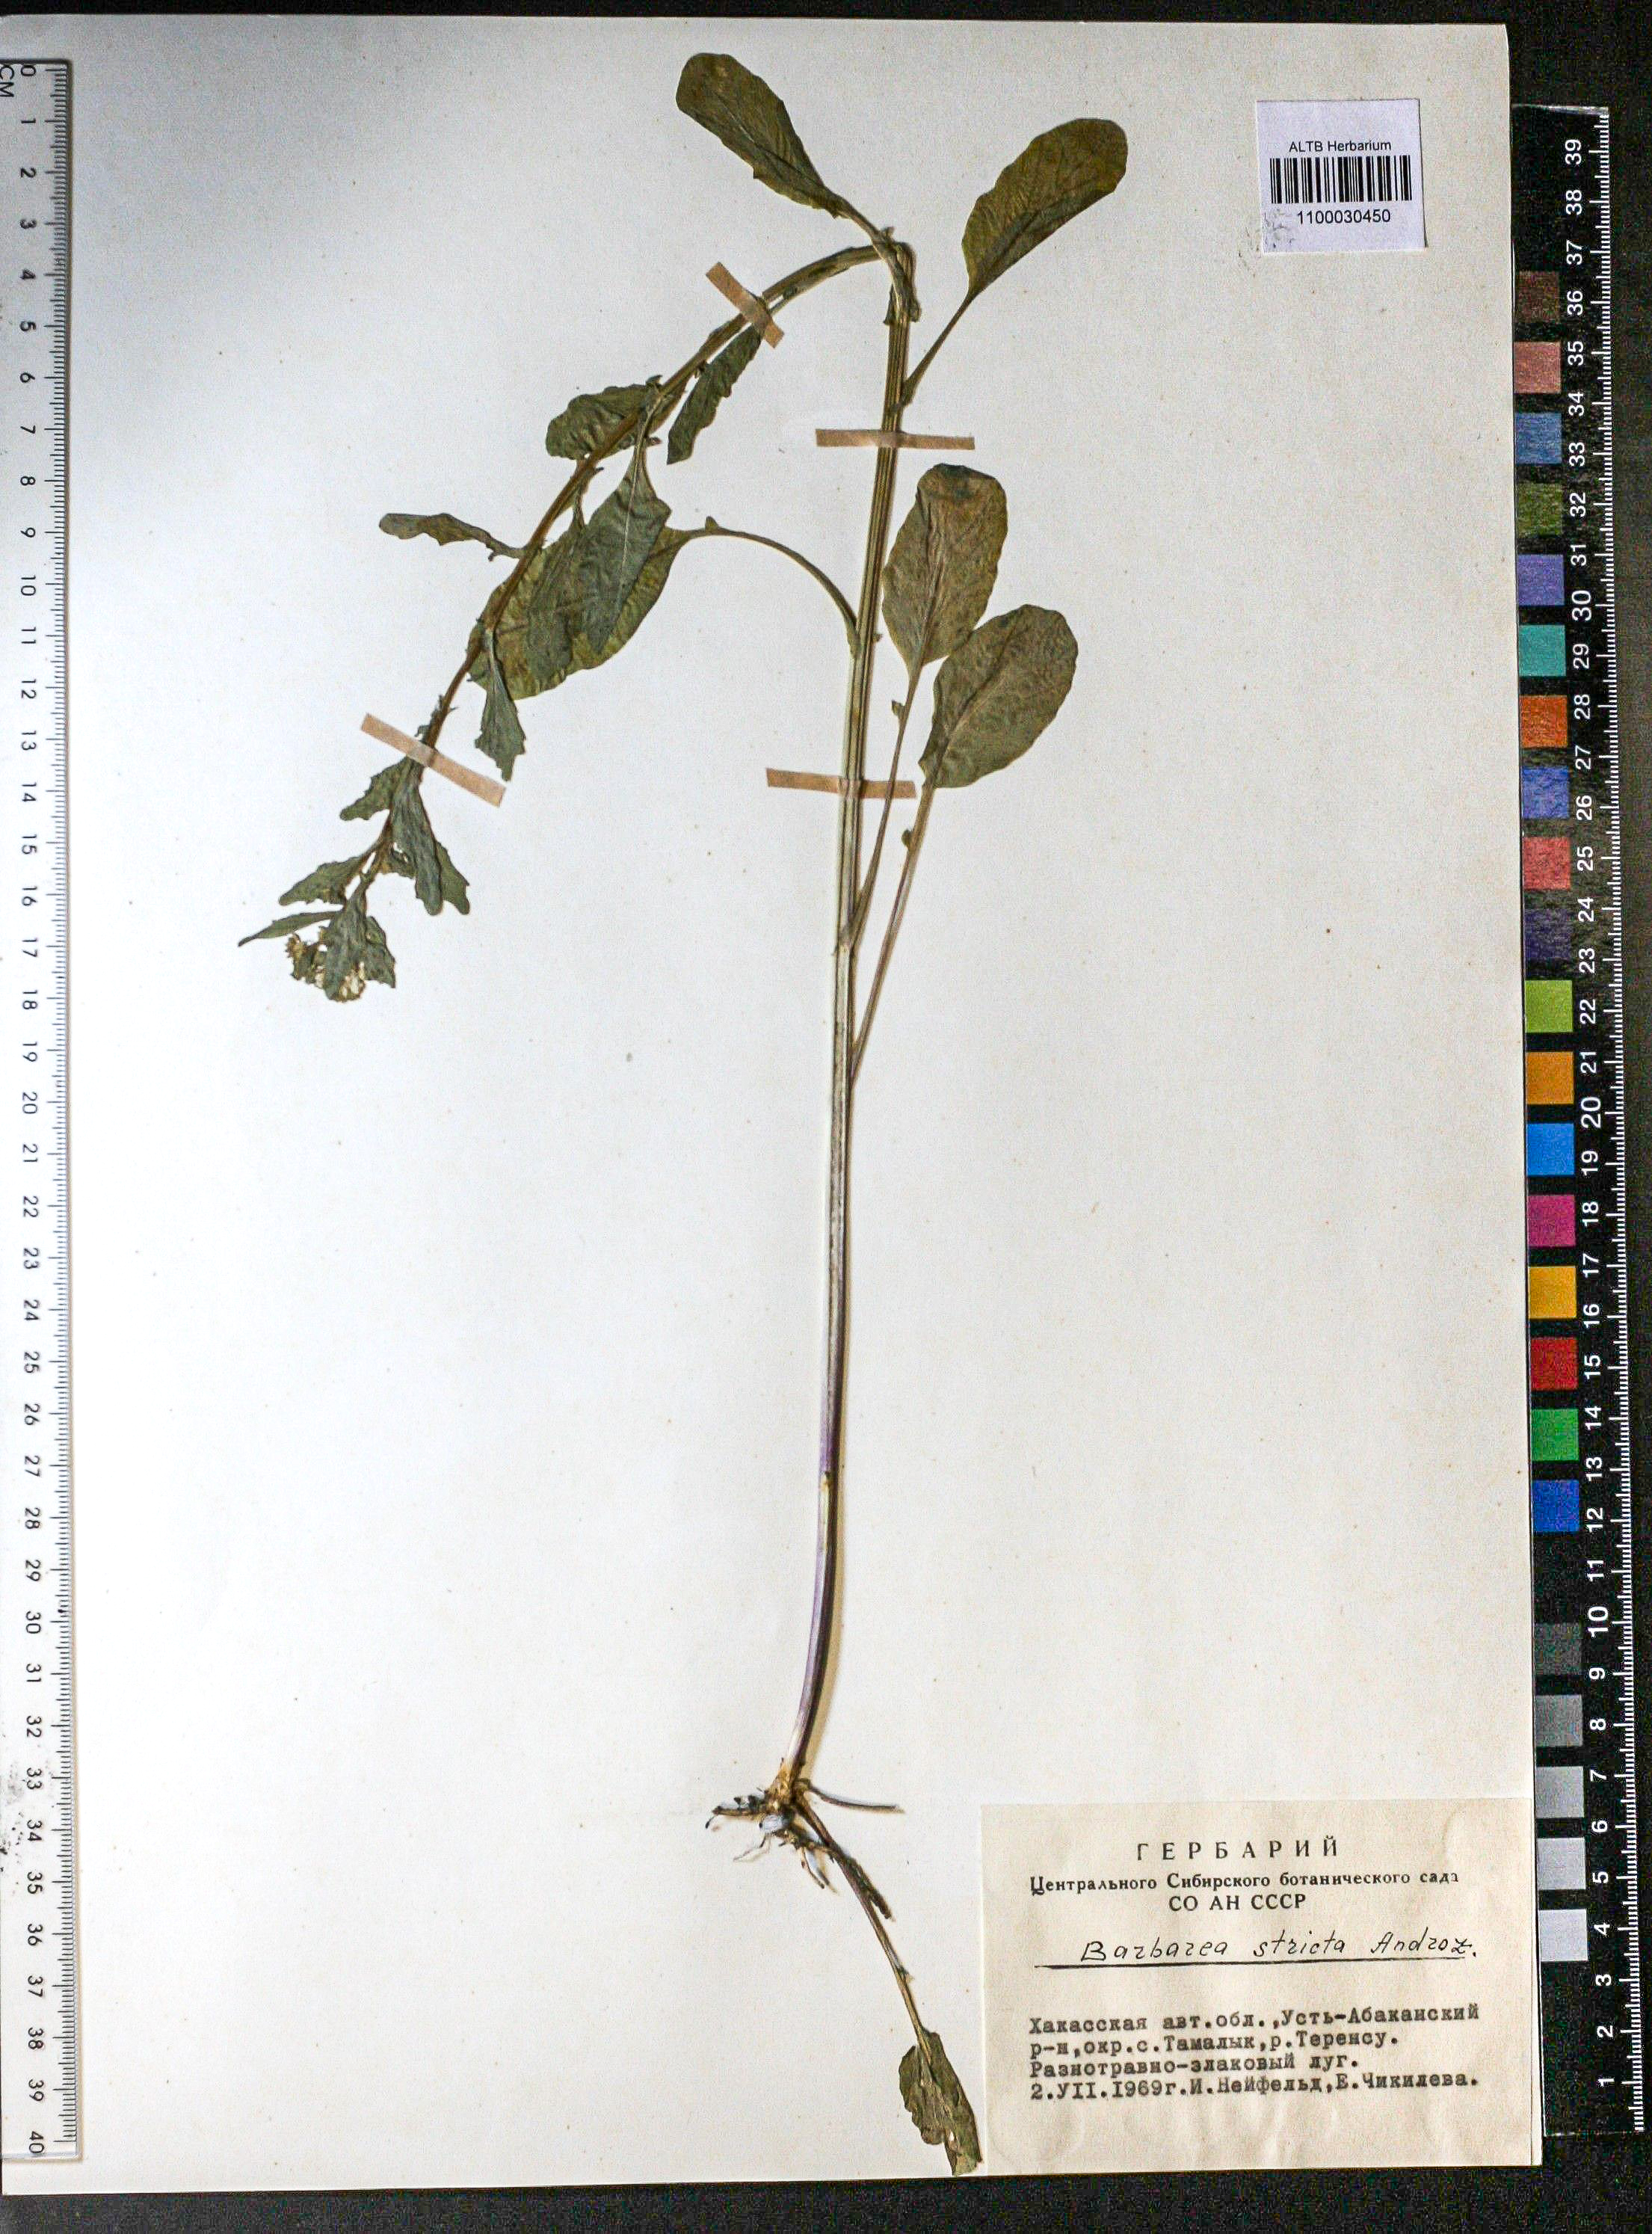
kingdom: Plantae
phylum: Tracheophyta
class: Magnoliopsida
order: Brassicales
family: Brassicaceae
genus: Barbarea
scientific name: Barbarea vulgaris
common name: Cressy-greens
